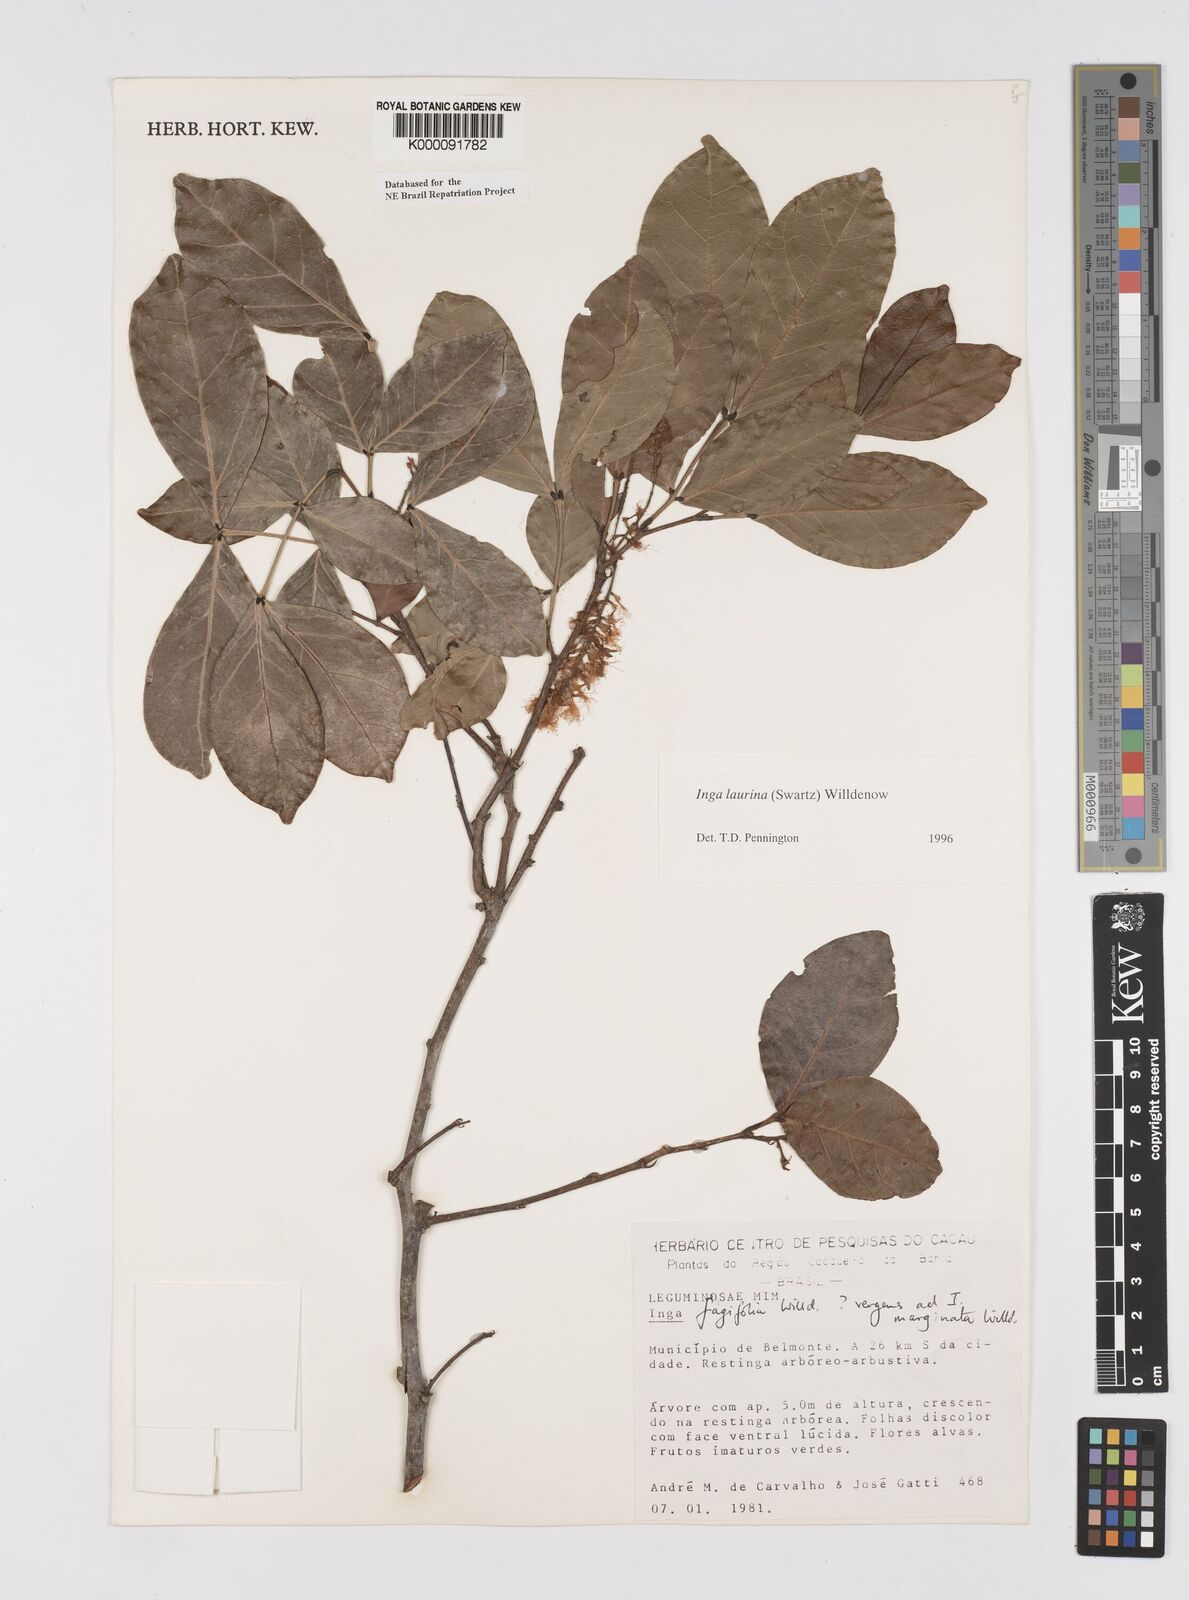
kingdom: Plantae
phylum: Tracheophyta
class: Magnoliopsida
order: Fabales
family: Fabaceae
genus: Inga
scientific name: Inga laurina
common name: Red wood
